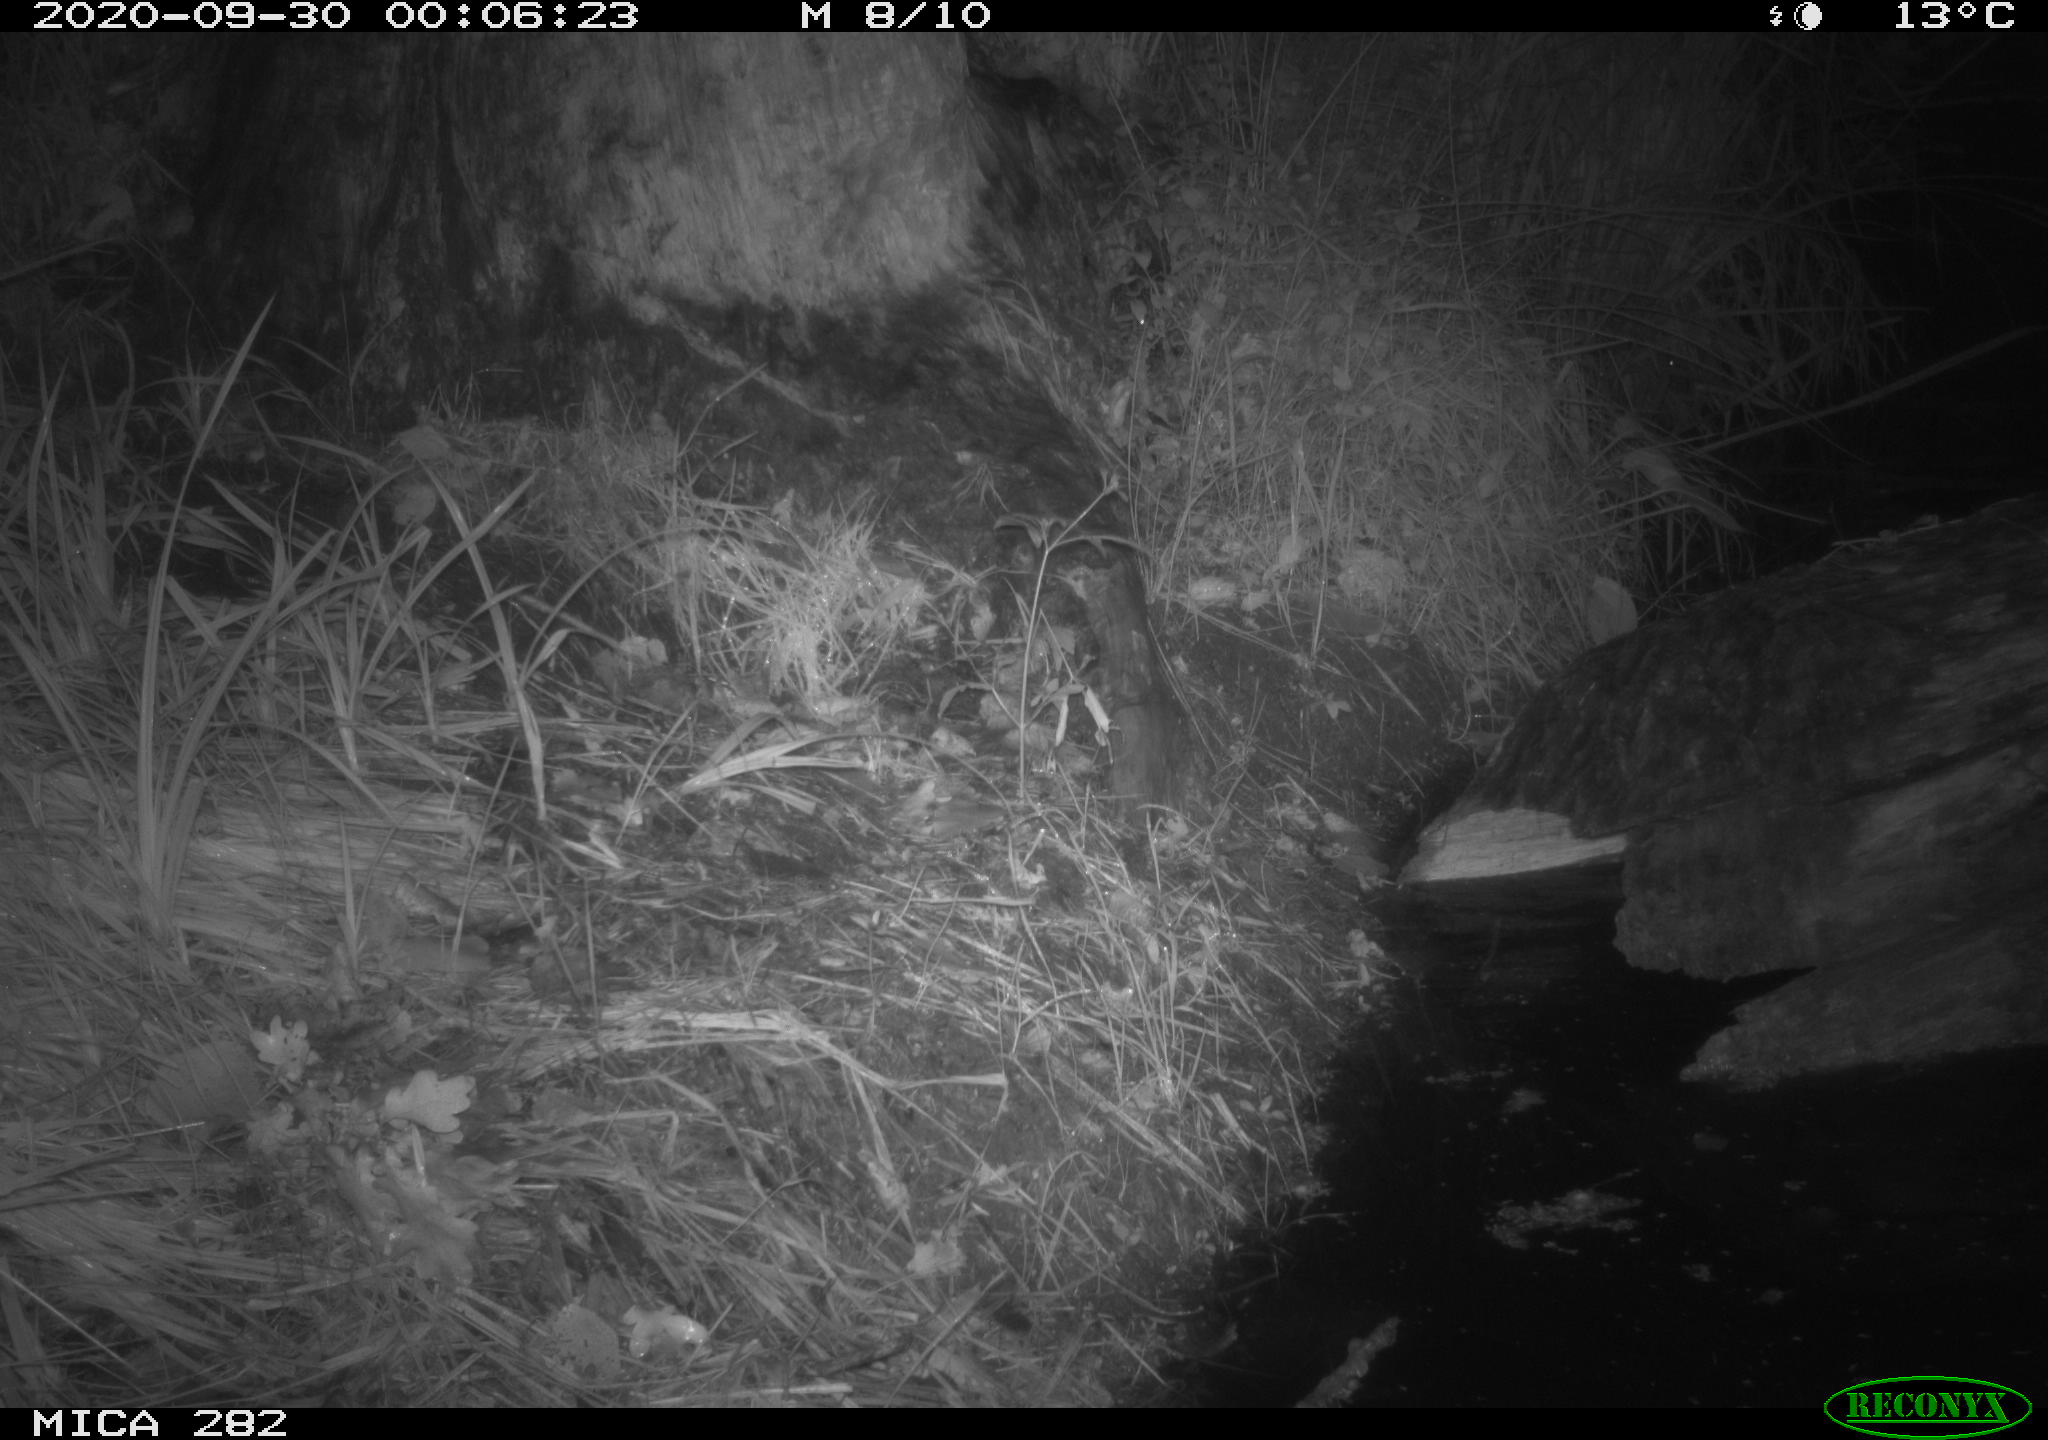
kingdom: Animalia
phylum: Chordata
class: Mammalia
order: Rodentia
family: Muridae
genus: Rattus
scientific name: Rattus norvegicus
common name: Brown rat
